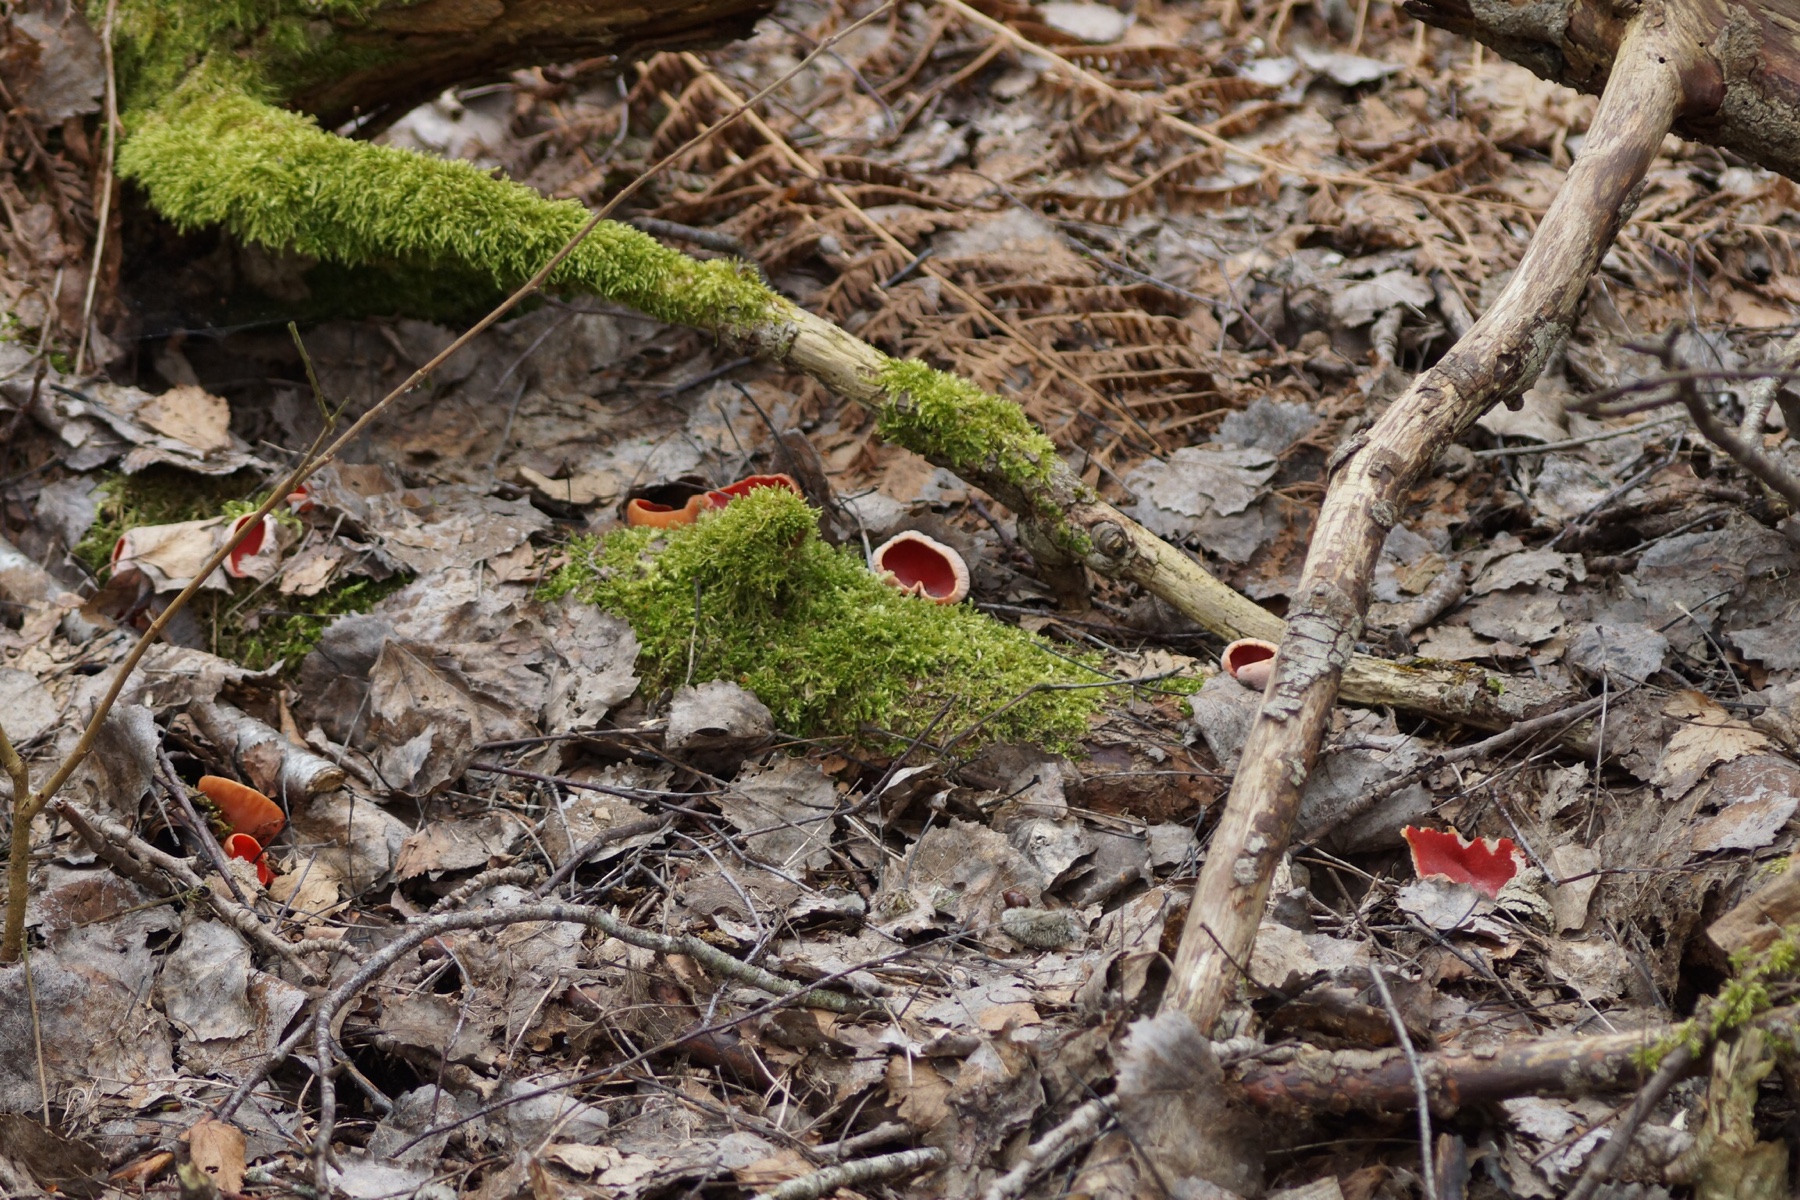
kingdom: Fungi
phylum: Ascomycota
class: Pezizomycetes
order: Pezizales
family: Sarcoscyphaceae
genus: Sarcoscypha
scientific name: Sarcoscypha austriaca
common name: krølhåret pragtbæger
